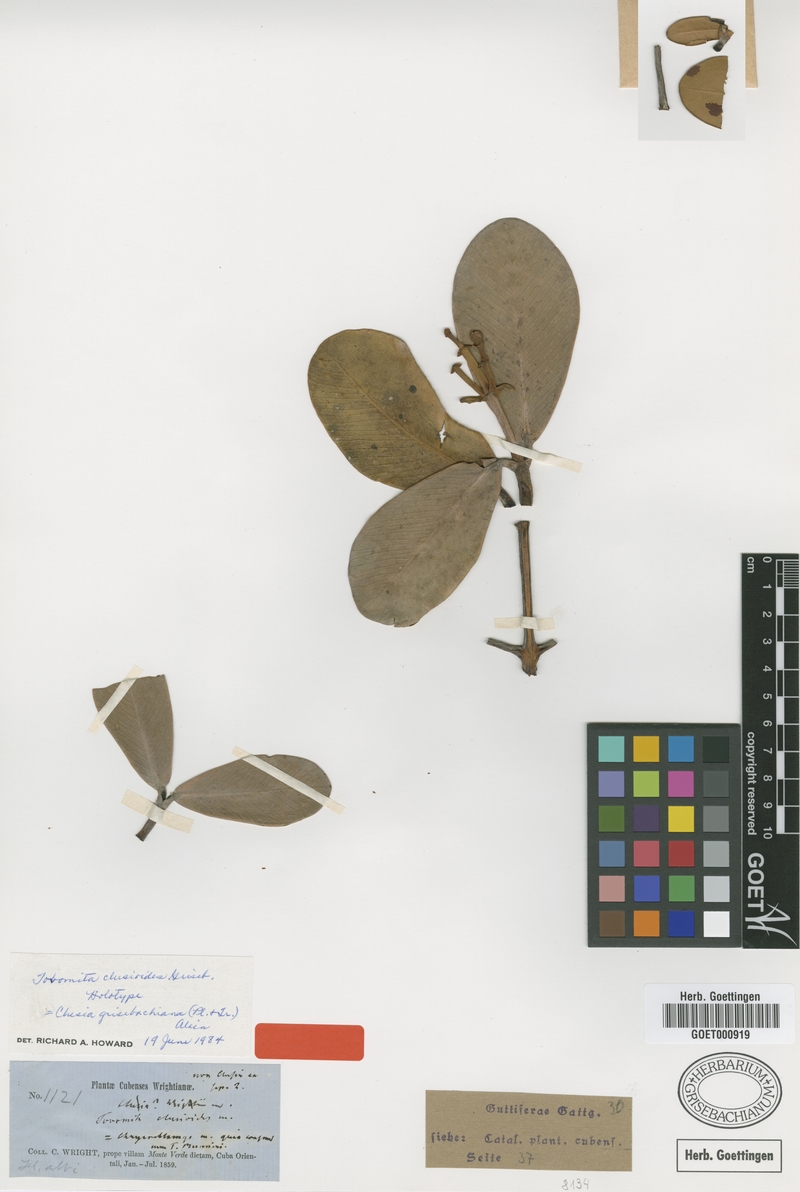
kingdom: Plantae
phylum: Tracheophyta
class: Magnoliopsida
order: Malpighiales
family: Clusiaceae
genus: Clusia
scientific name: Clusia clusioides
